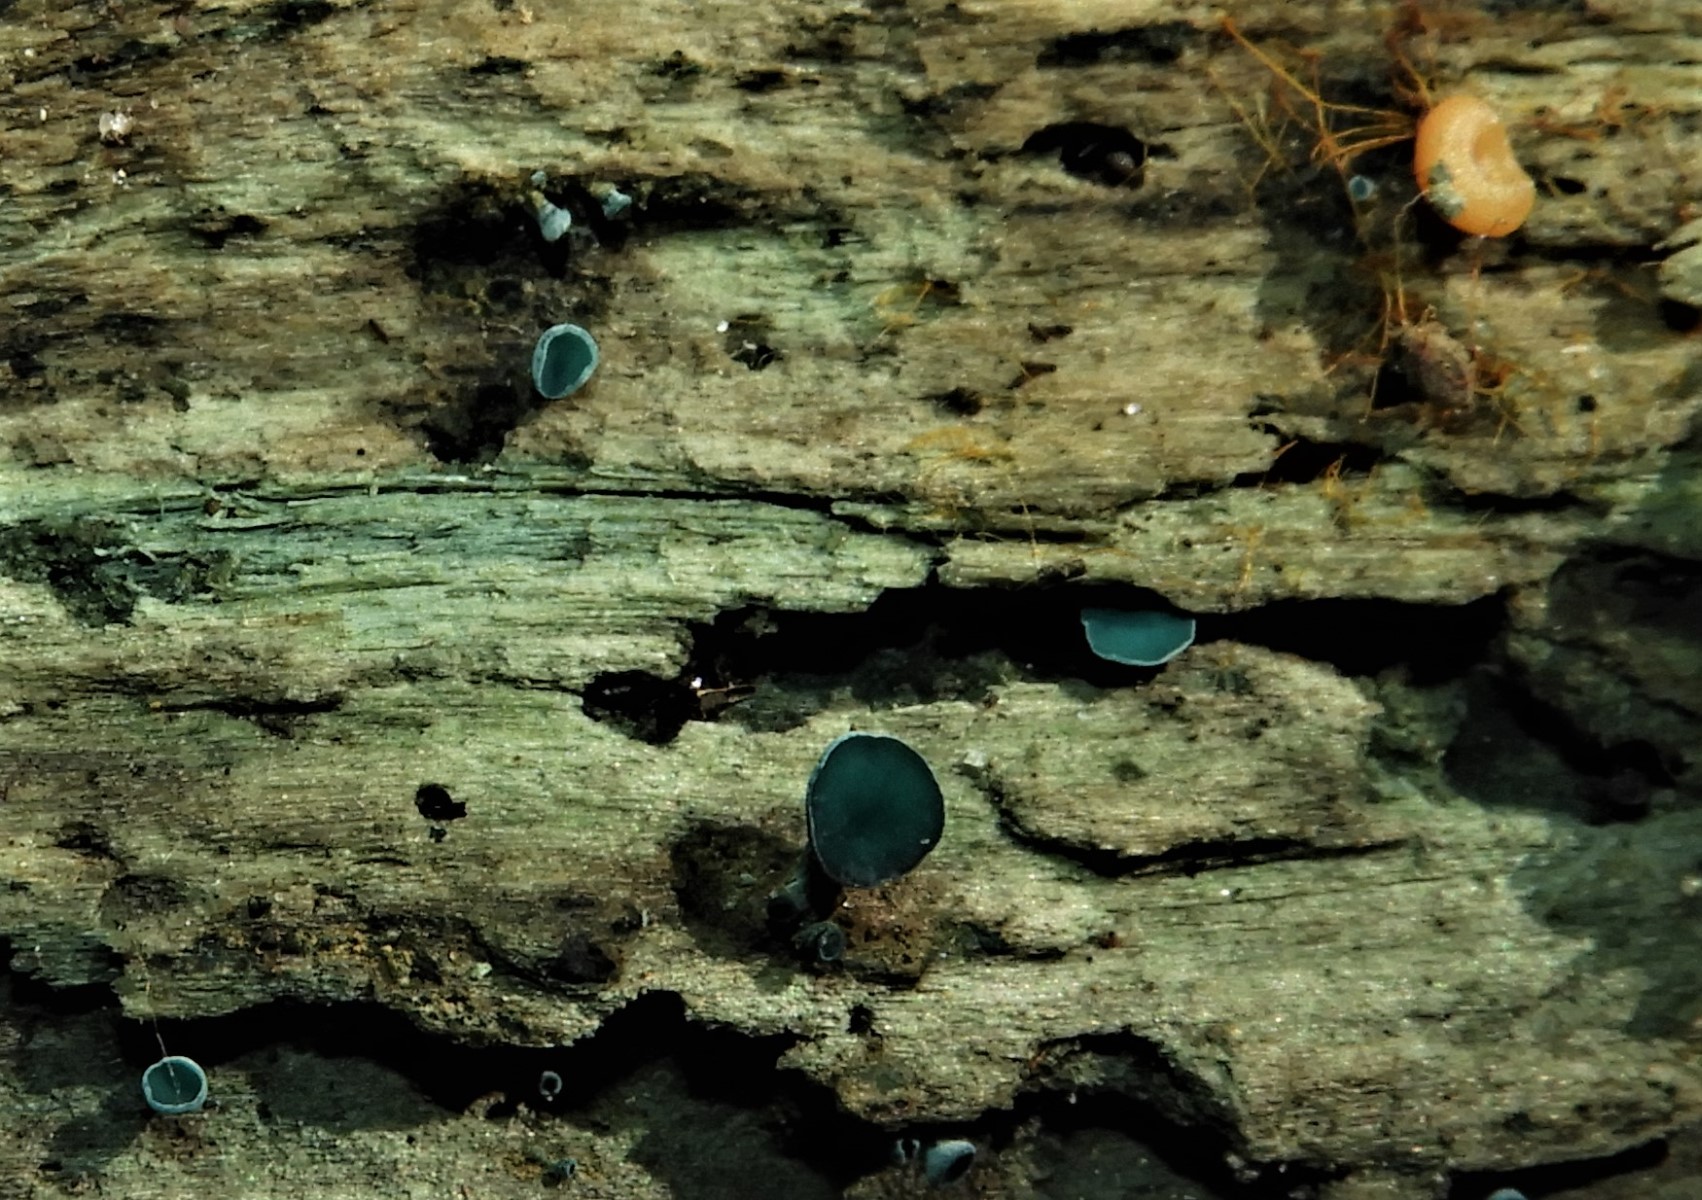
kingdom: Fungi
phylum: Basidiomycota
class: Agaricomycetes
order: Agaricales
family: Typhulaceae
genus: Sclerotium
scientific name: Sclerotium
